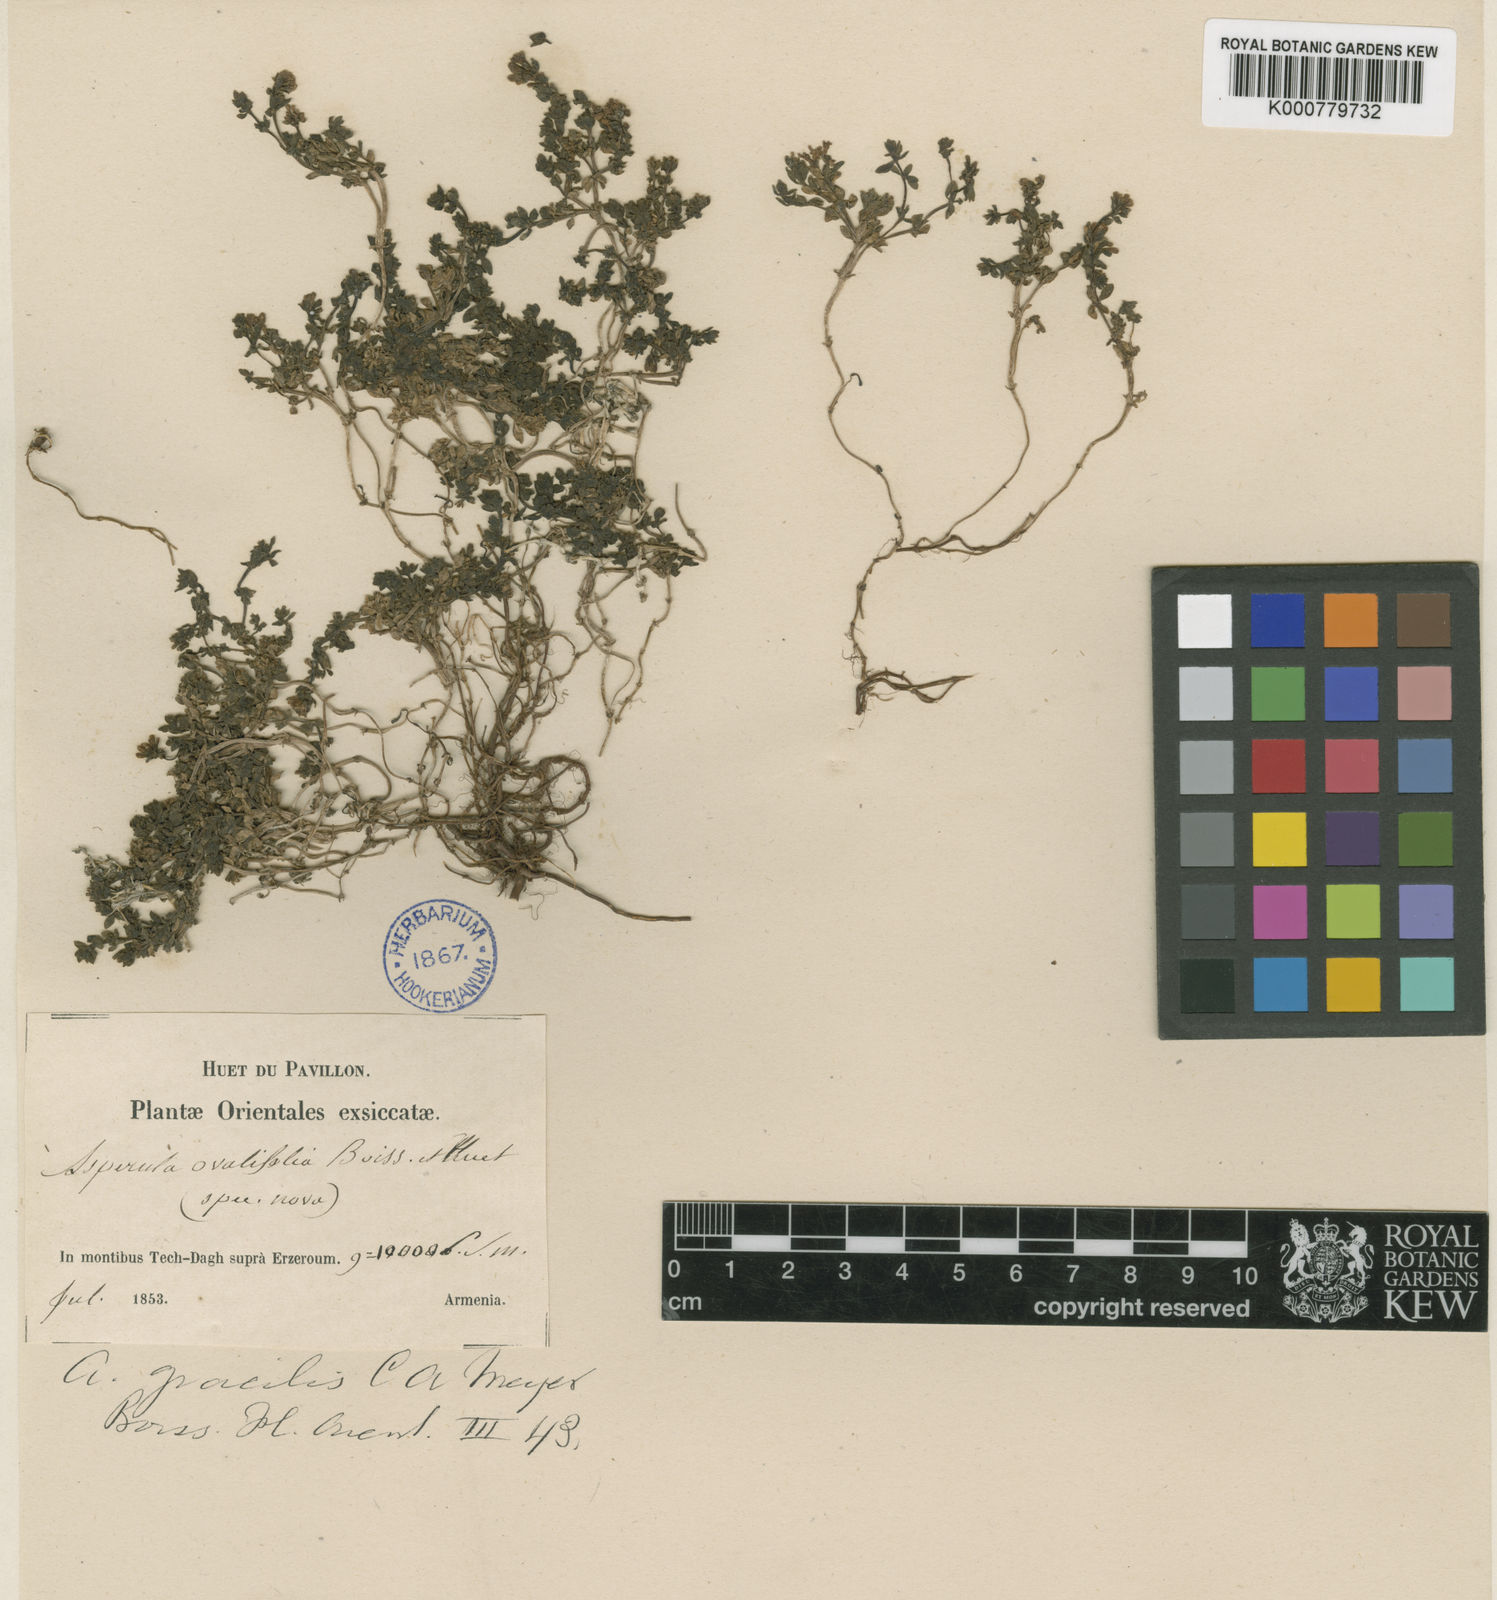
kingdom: Plantae
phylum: Tracheophyta
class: Magnoliopsida
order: Gentianales
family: Rubiaceae
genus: Asperula
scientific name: Asperula gracilis
